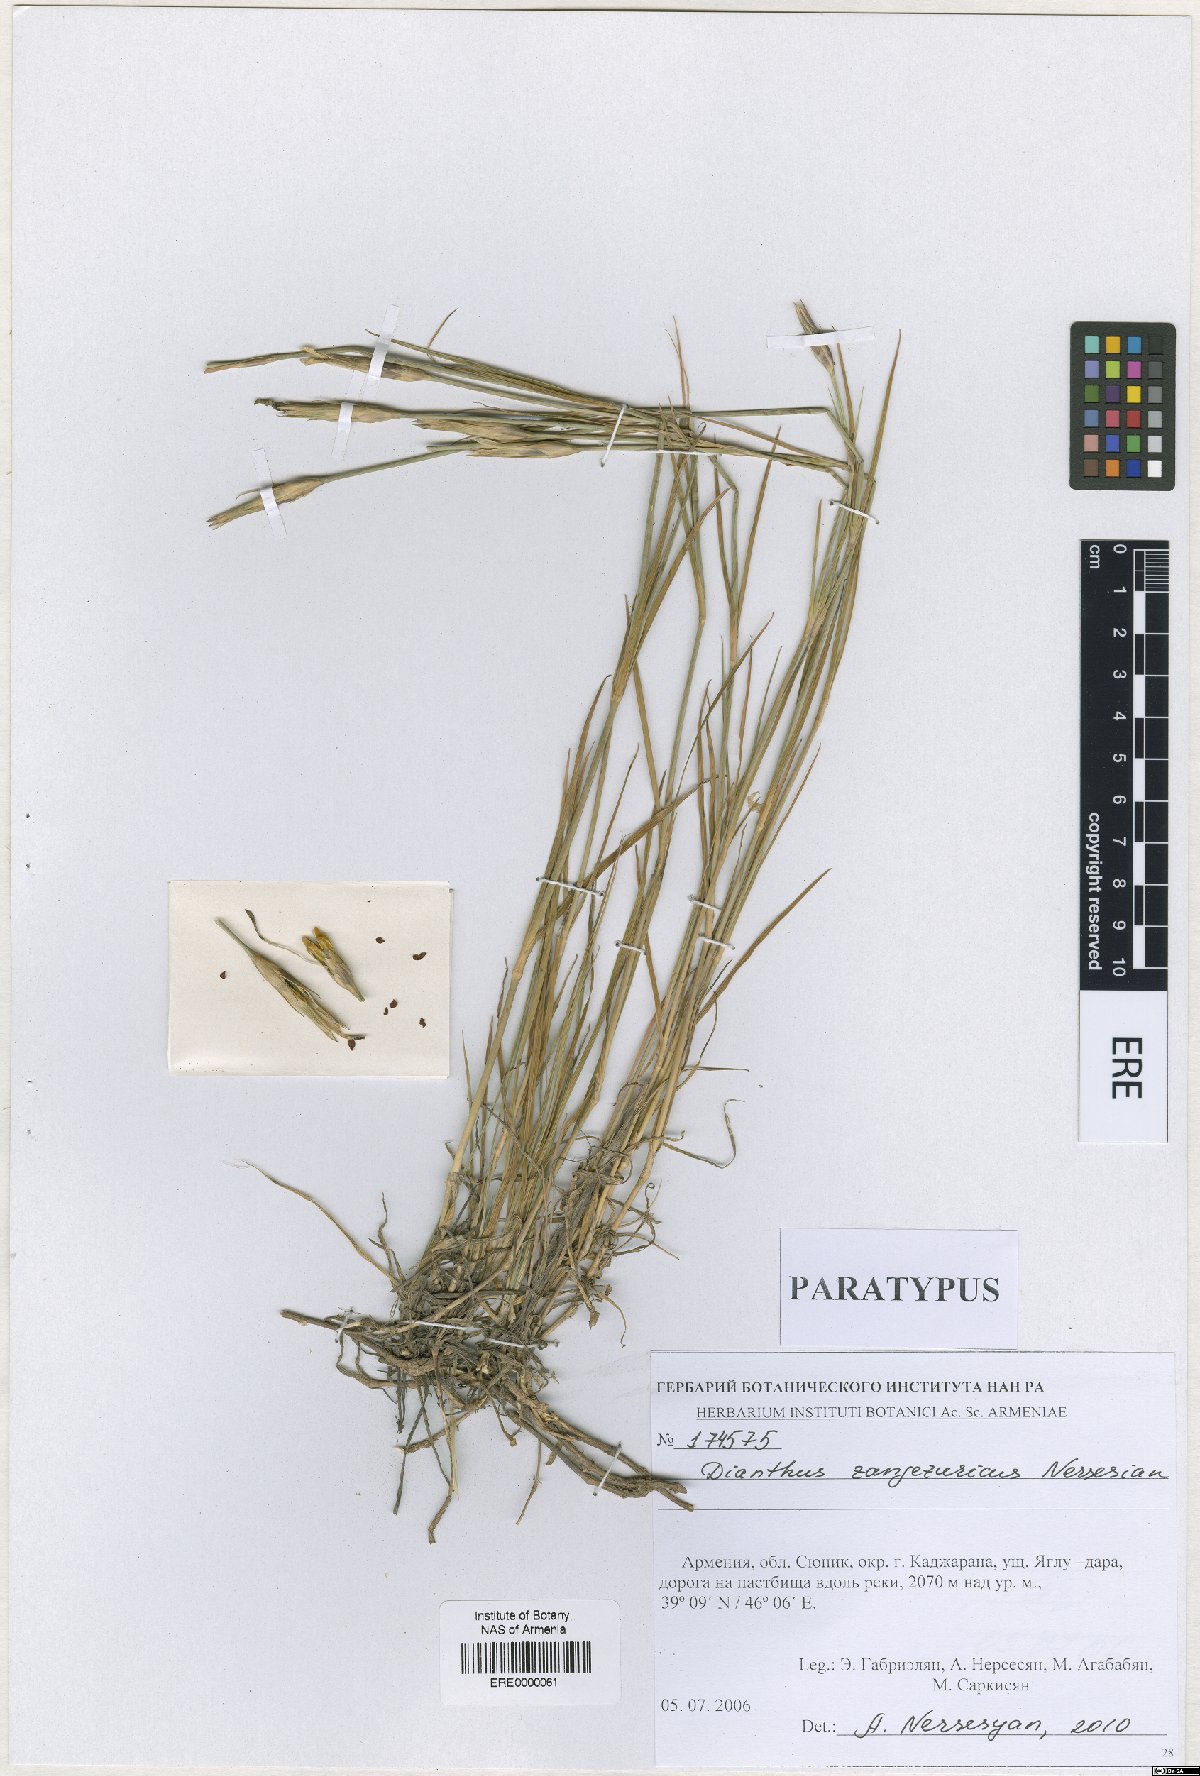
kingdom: Plantae
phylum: Tracheophyta
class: Magnoliopsida
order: Caryophyllales
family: Caryophyllaceae
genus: Dianthus
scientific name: Dianthus zangezuricus
